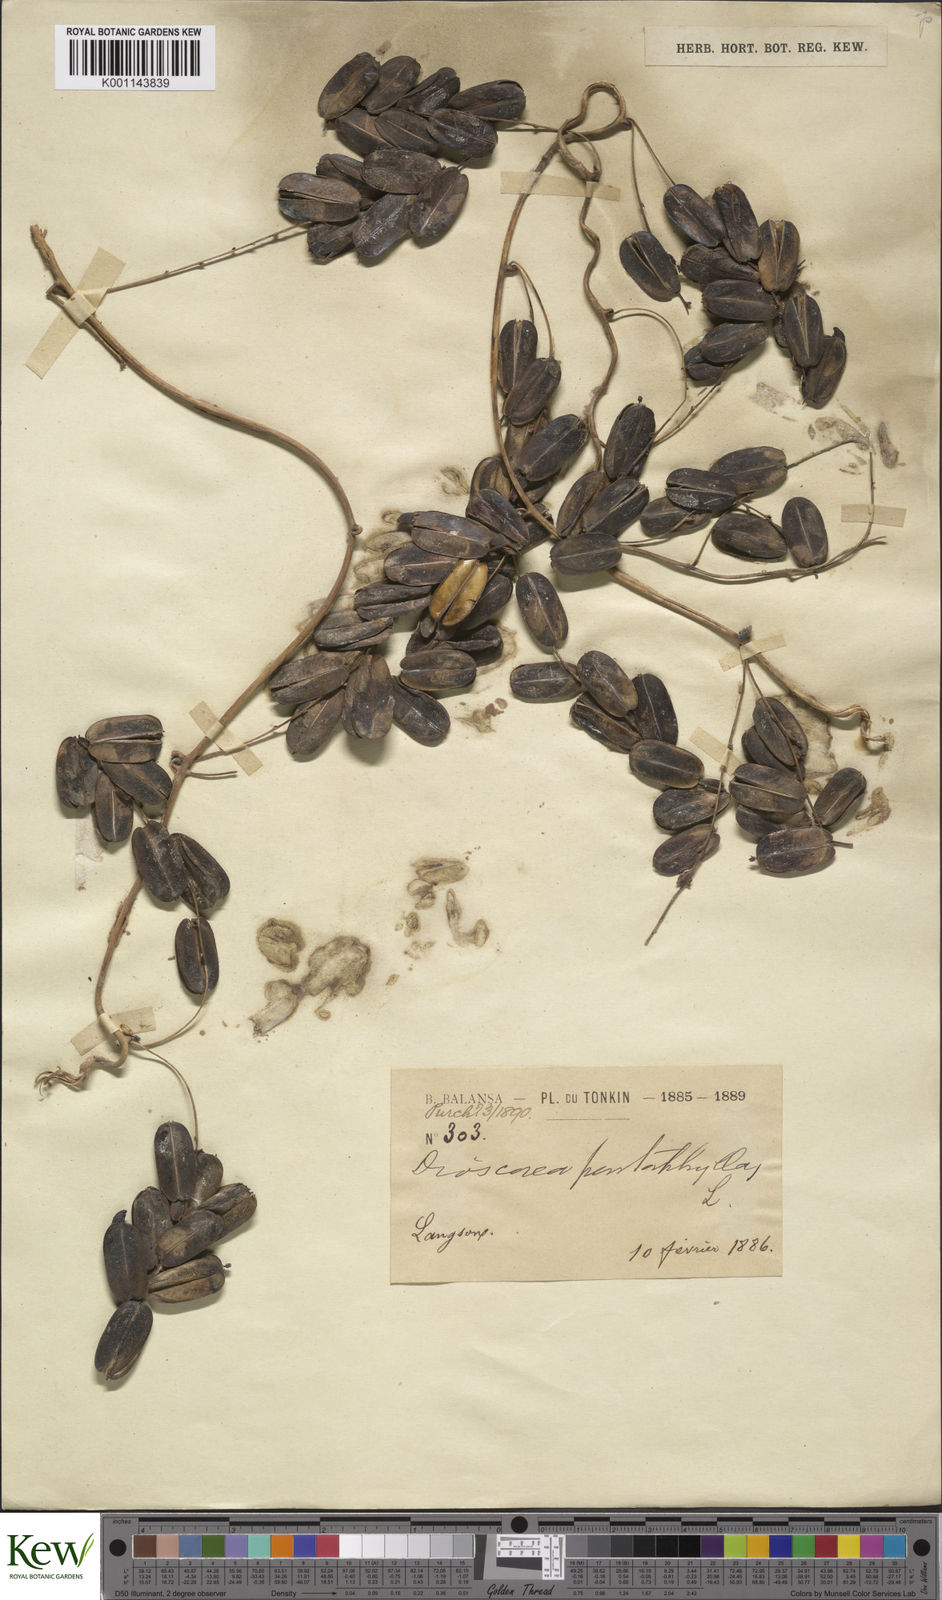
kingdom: Plantae
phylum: Tracheophyta
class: Liliopsida
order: Dioscoreales
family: Dioscoreaceae
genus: Dioscorea
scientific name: Dioscorea pentaphylla
